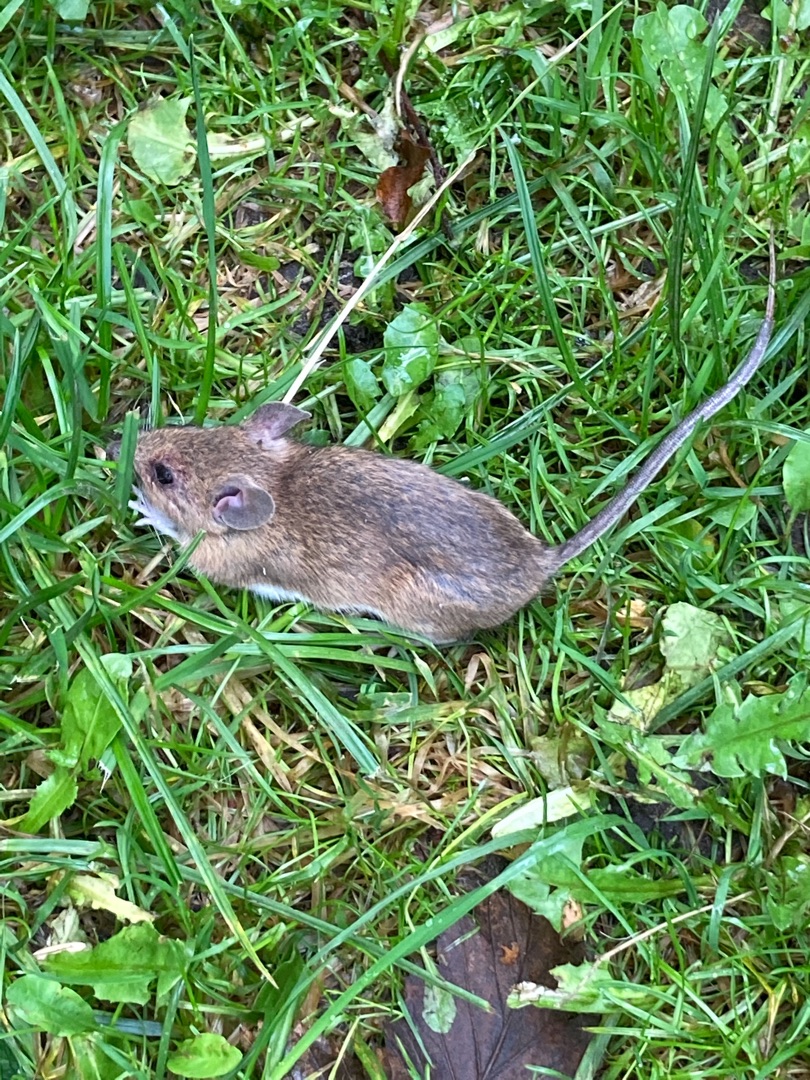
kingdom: Animalia
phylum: Chordata
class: Mammalia
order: Rodentia
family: Muridae
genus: Apodemus
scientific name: Apodemus flavicollis
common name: Halsbåndmus
